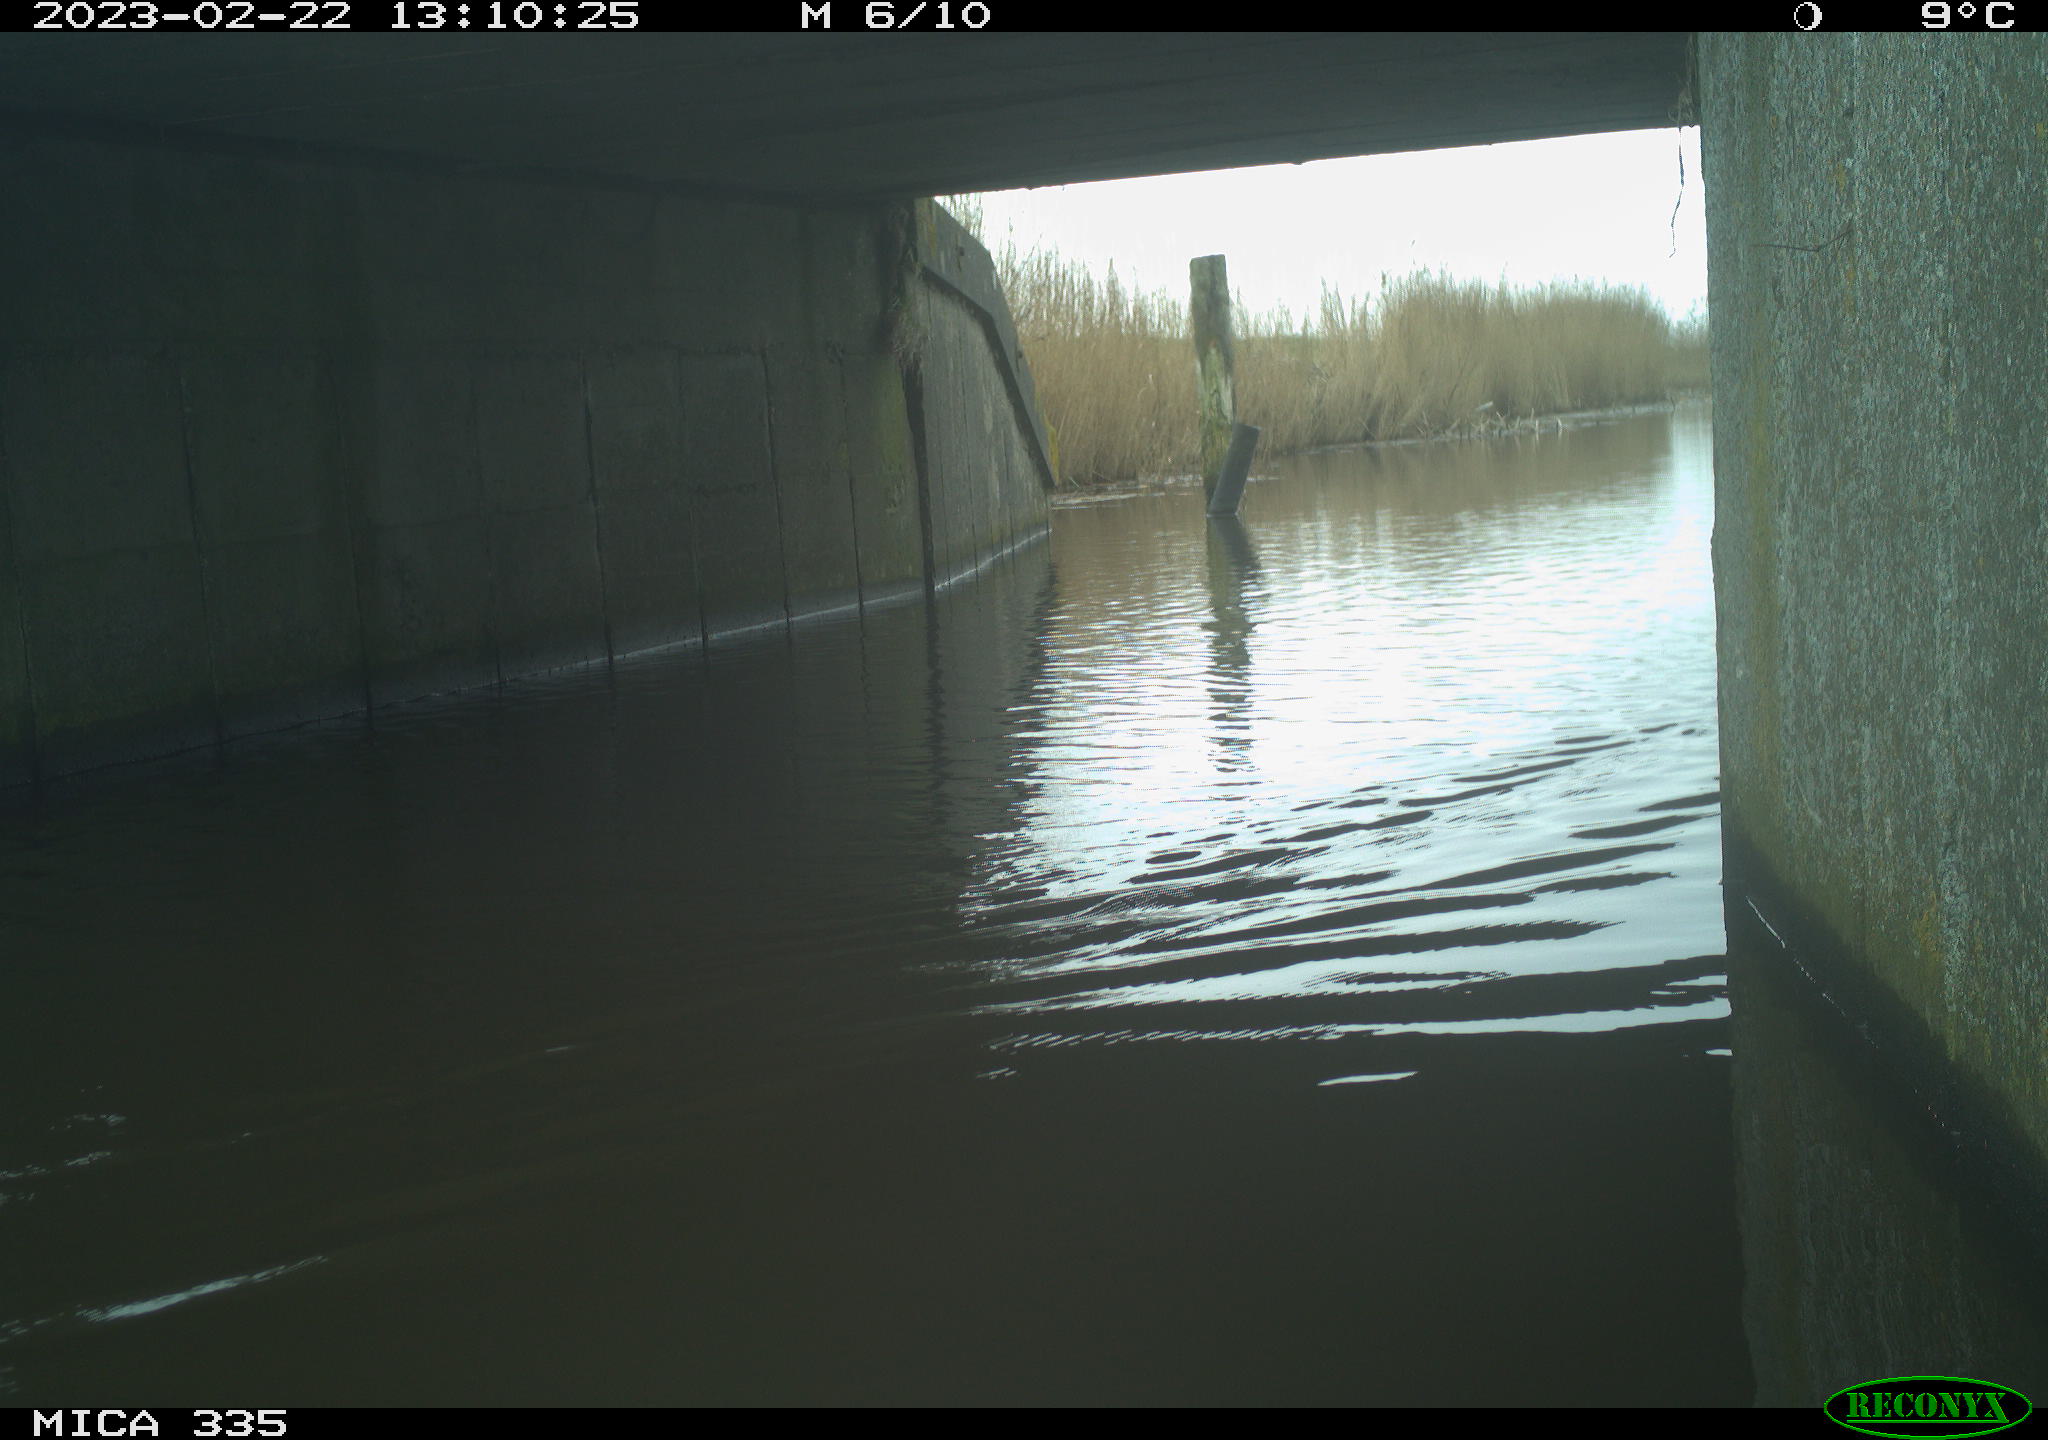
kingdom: Animalia
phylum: Chordata
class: Aves
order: Anseriformes
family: Anatidae
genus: Anas
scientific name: Anas
